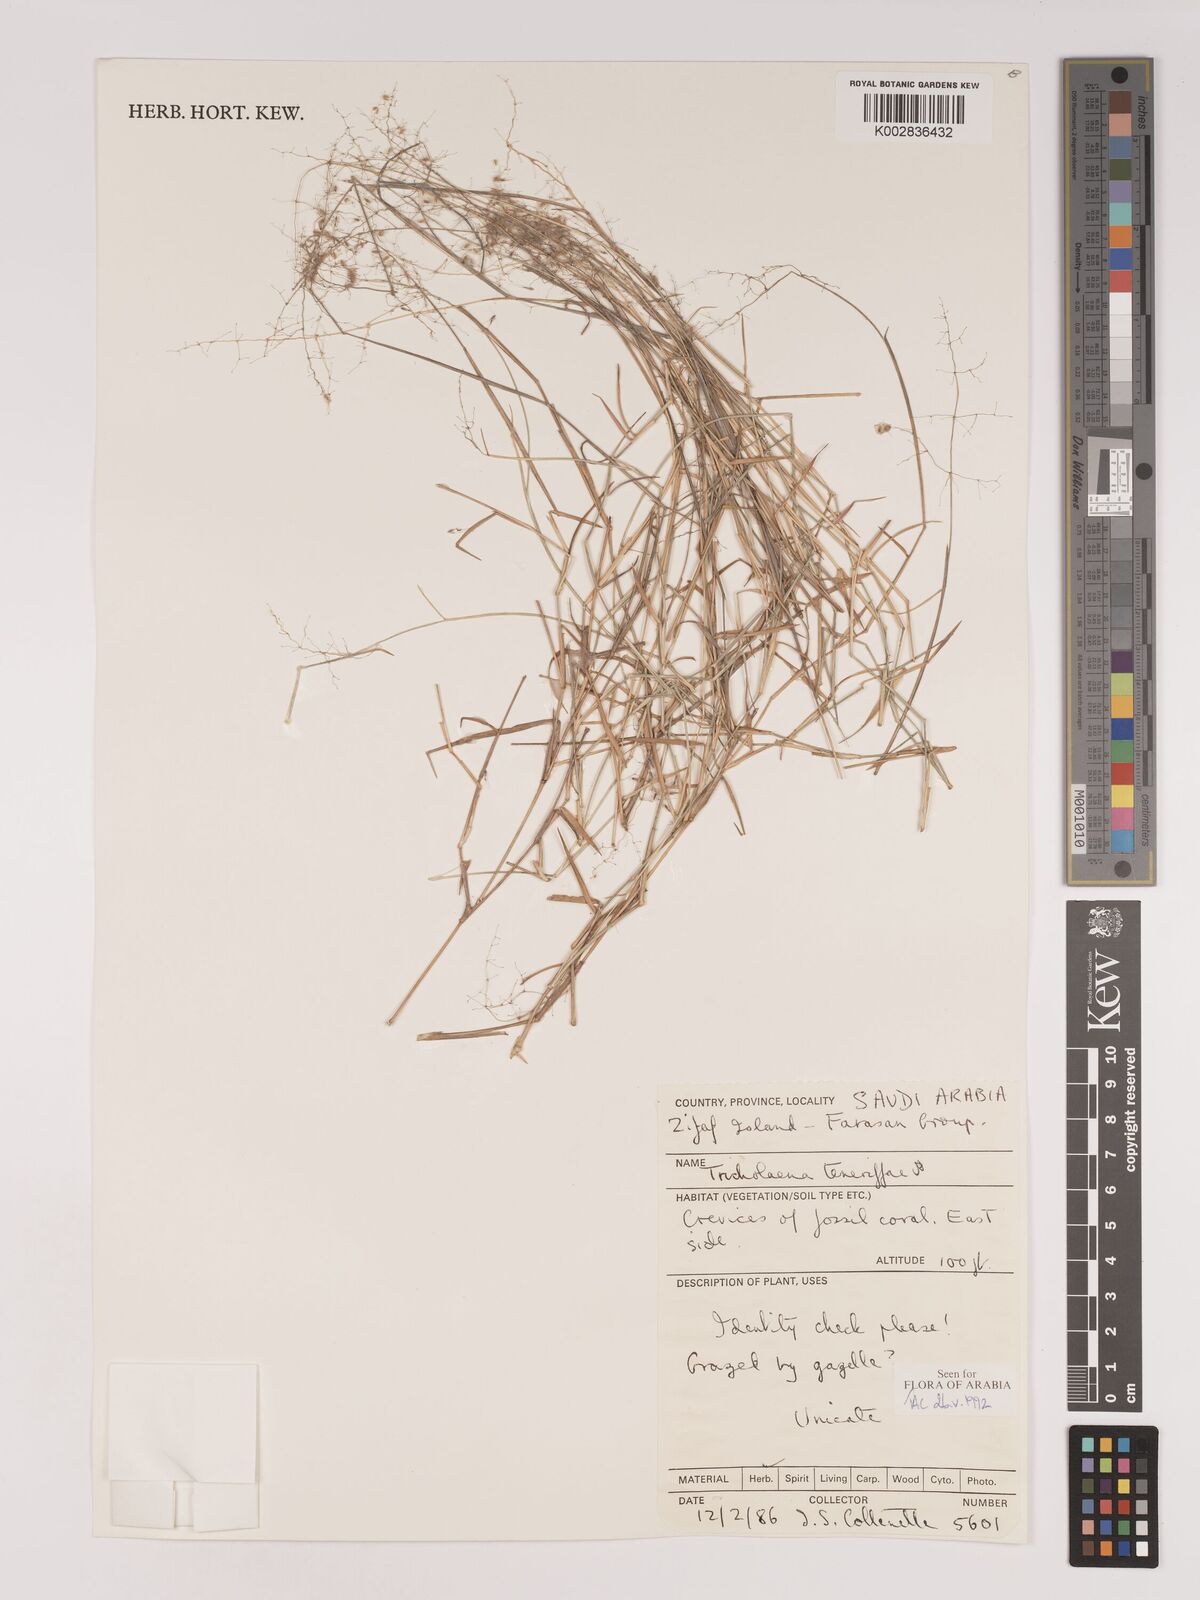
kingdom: Plantae
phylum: Tracheophyta
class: Liliopsida
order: Poales
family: Poaceae
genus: Tricholaena
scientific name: Tricholaena teneriffae
